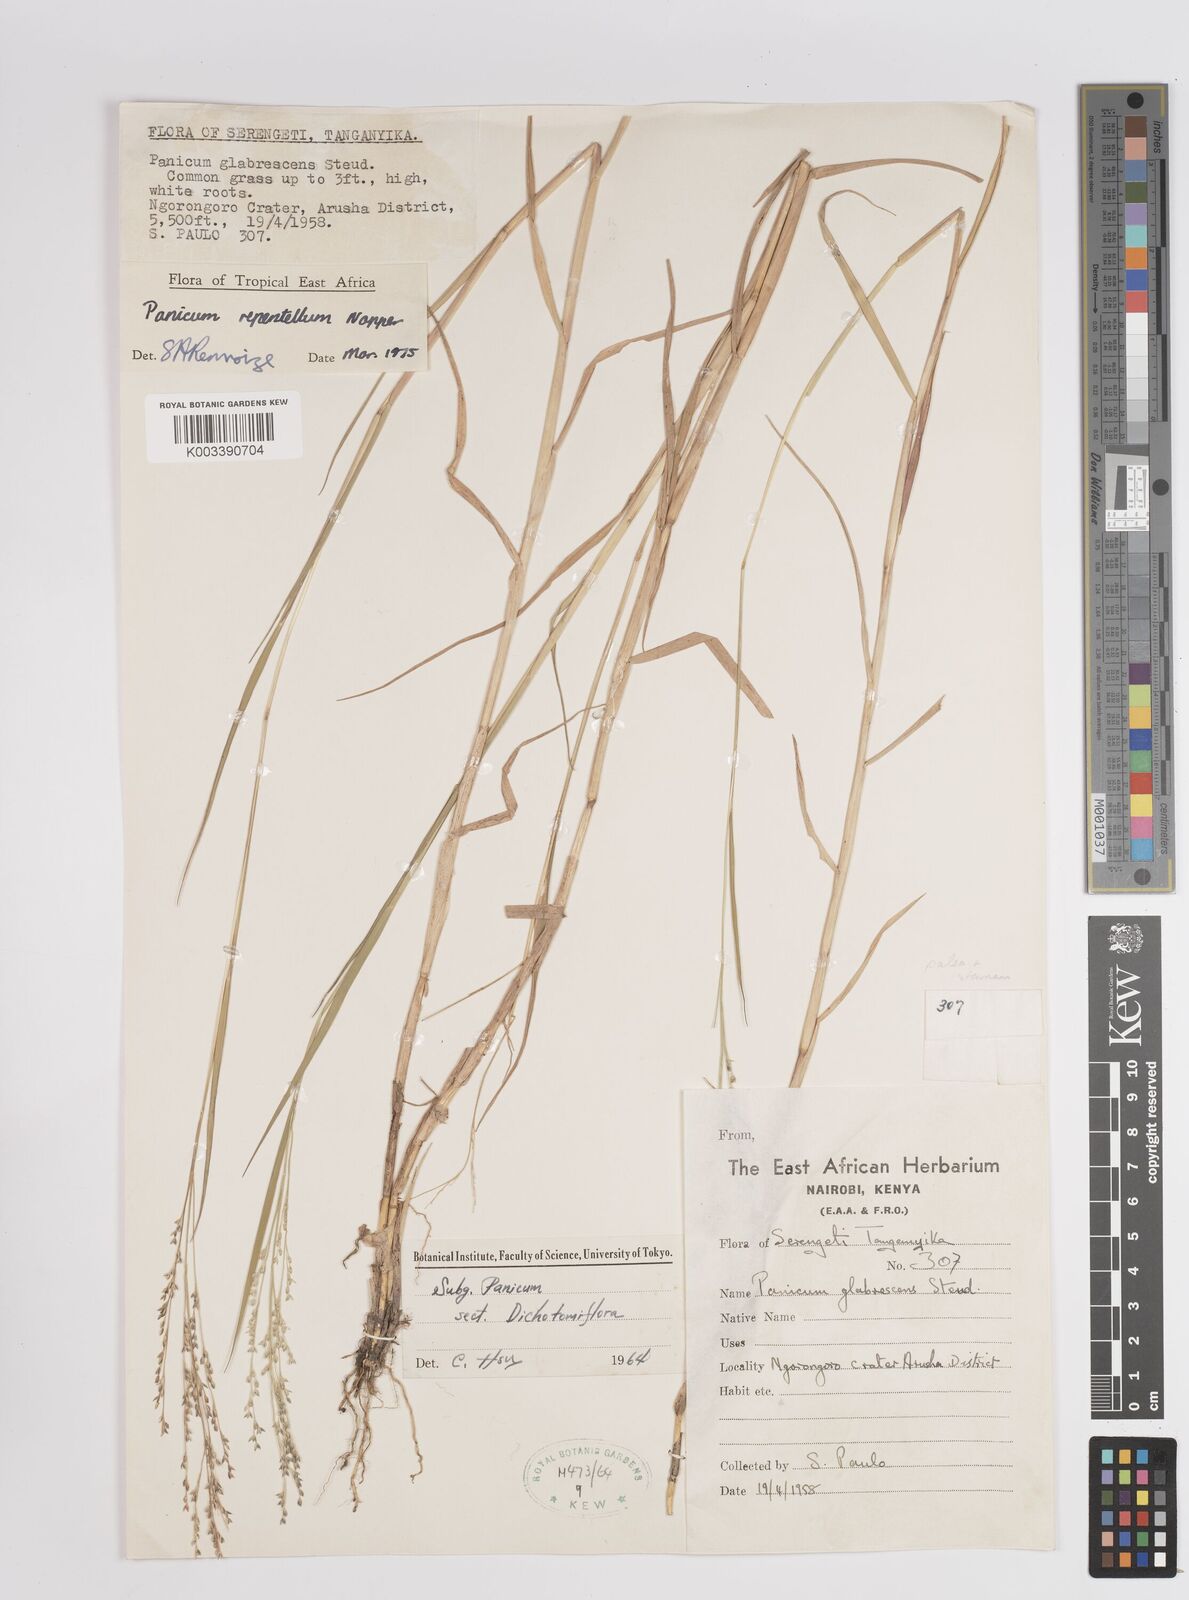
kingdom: Plantae
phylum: Tracheophyta
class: Liliopsida
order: Poales
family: Poaceae
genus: Panicum
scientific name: Panicum hygrocharis
